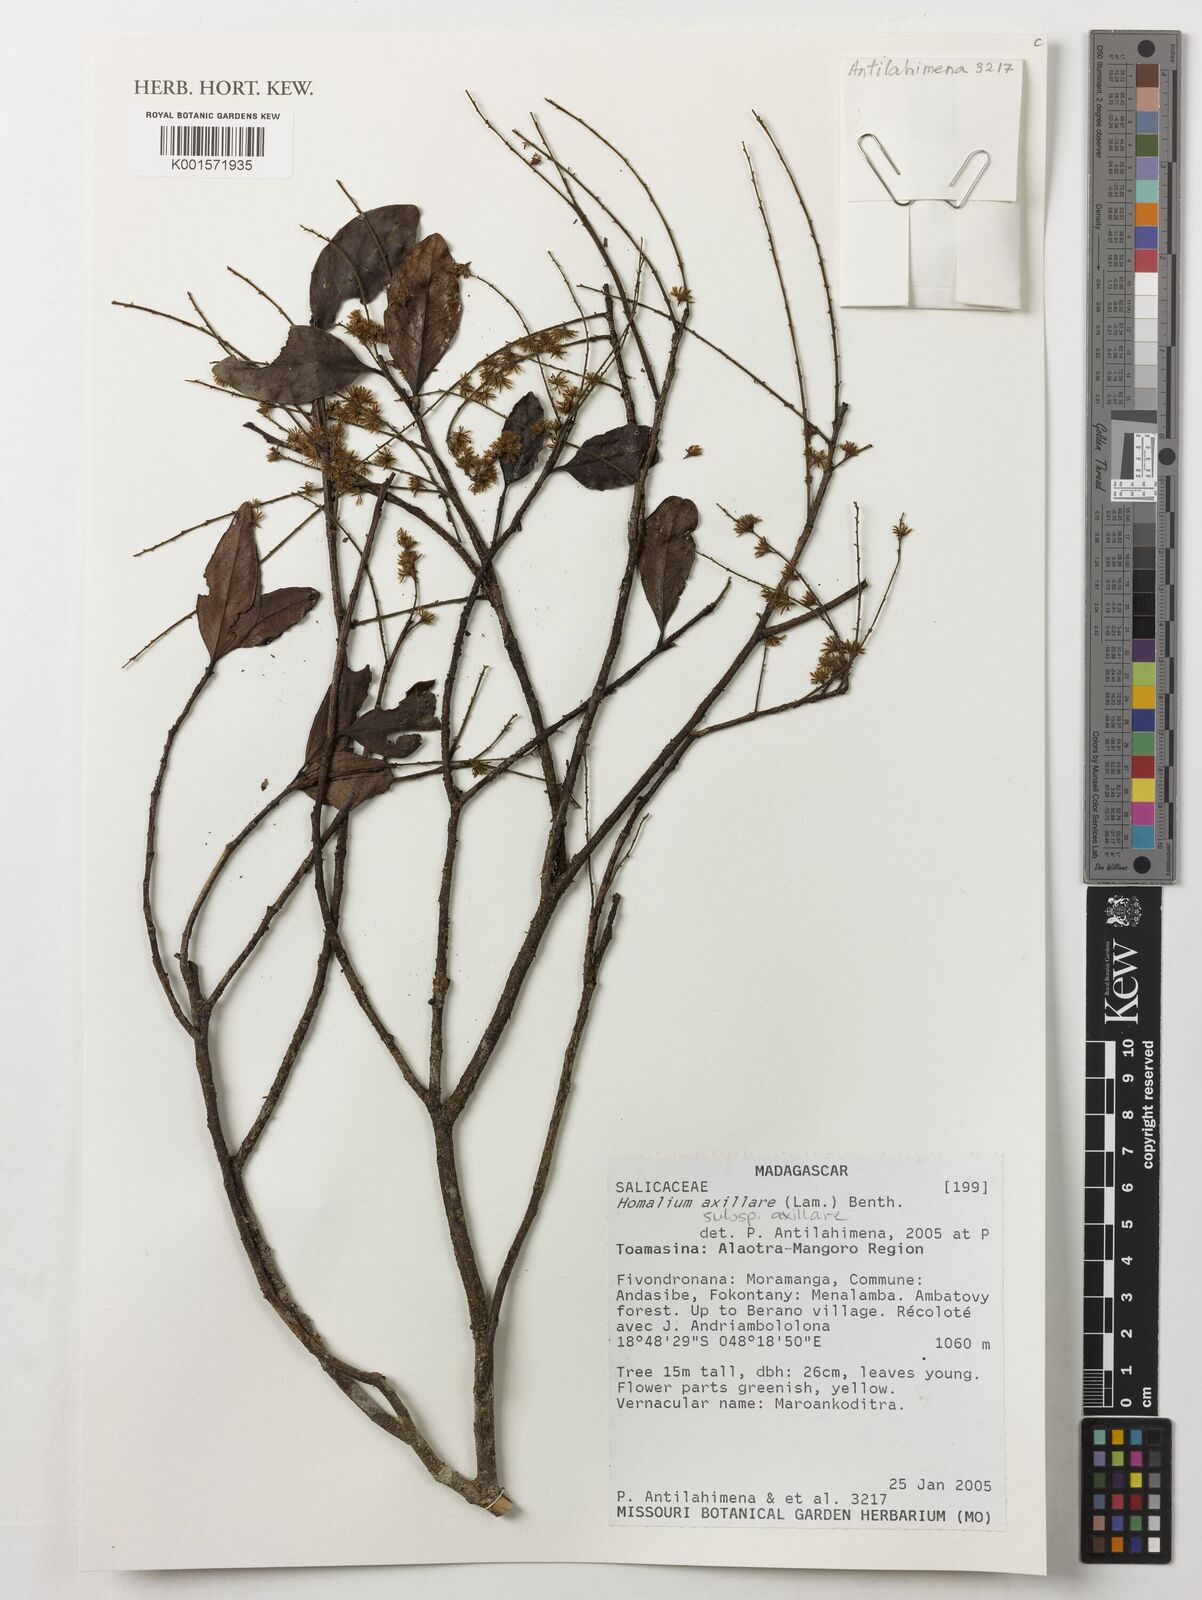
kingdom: Plantae
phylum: Tracheophyta
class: Magnoliopsida
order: Malpighiales
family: Salicaceae
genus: Homalium
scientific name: Homalium axillare
